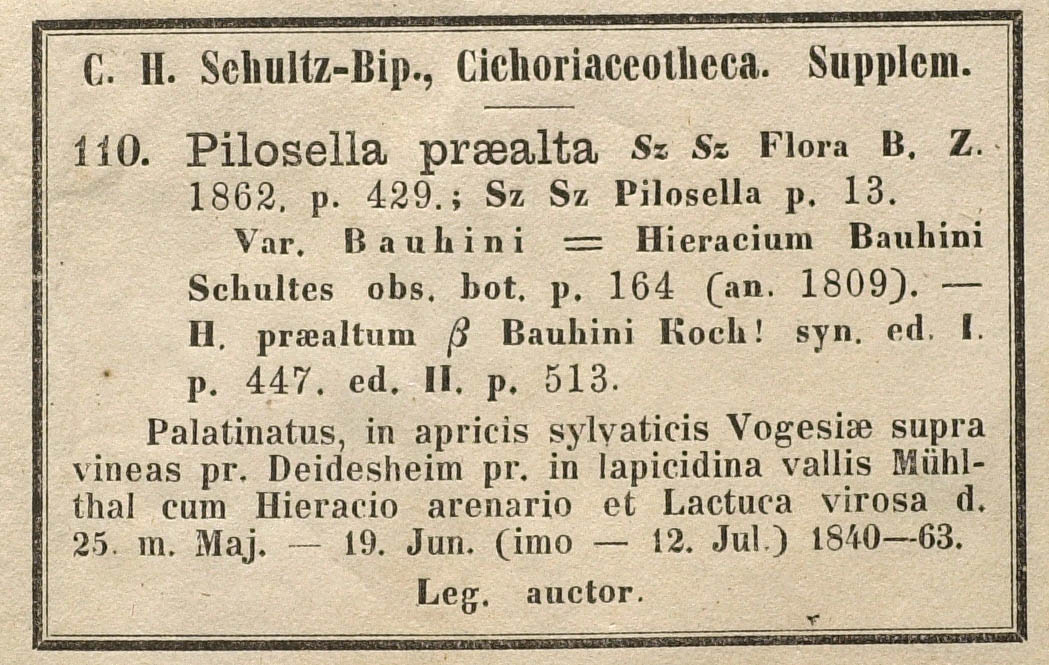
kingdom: Plantae
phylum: Tracheophyta
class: Magnoliopsida
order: Asterales
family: Asteraceae
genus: Pilosella
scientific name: Pilosella bauhini
